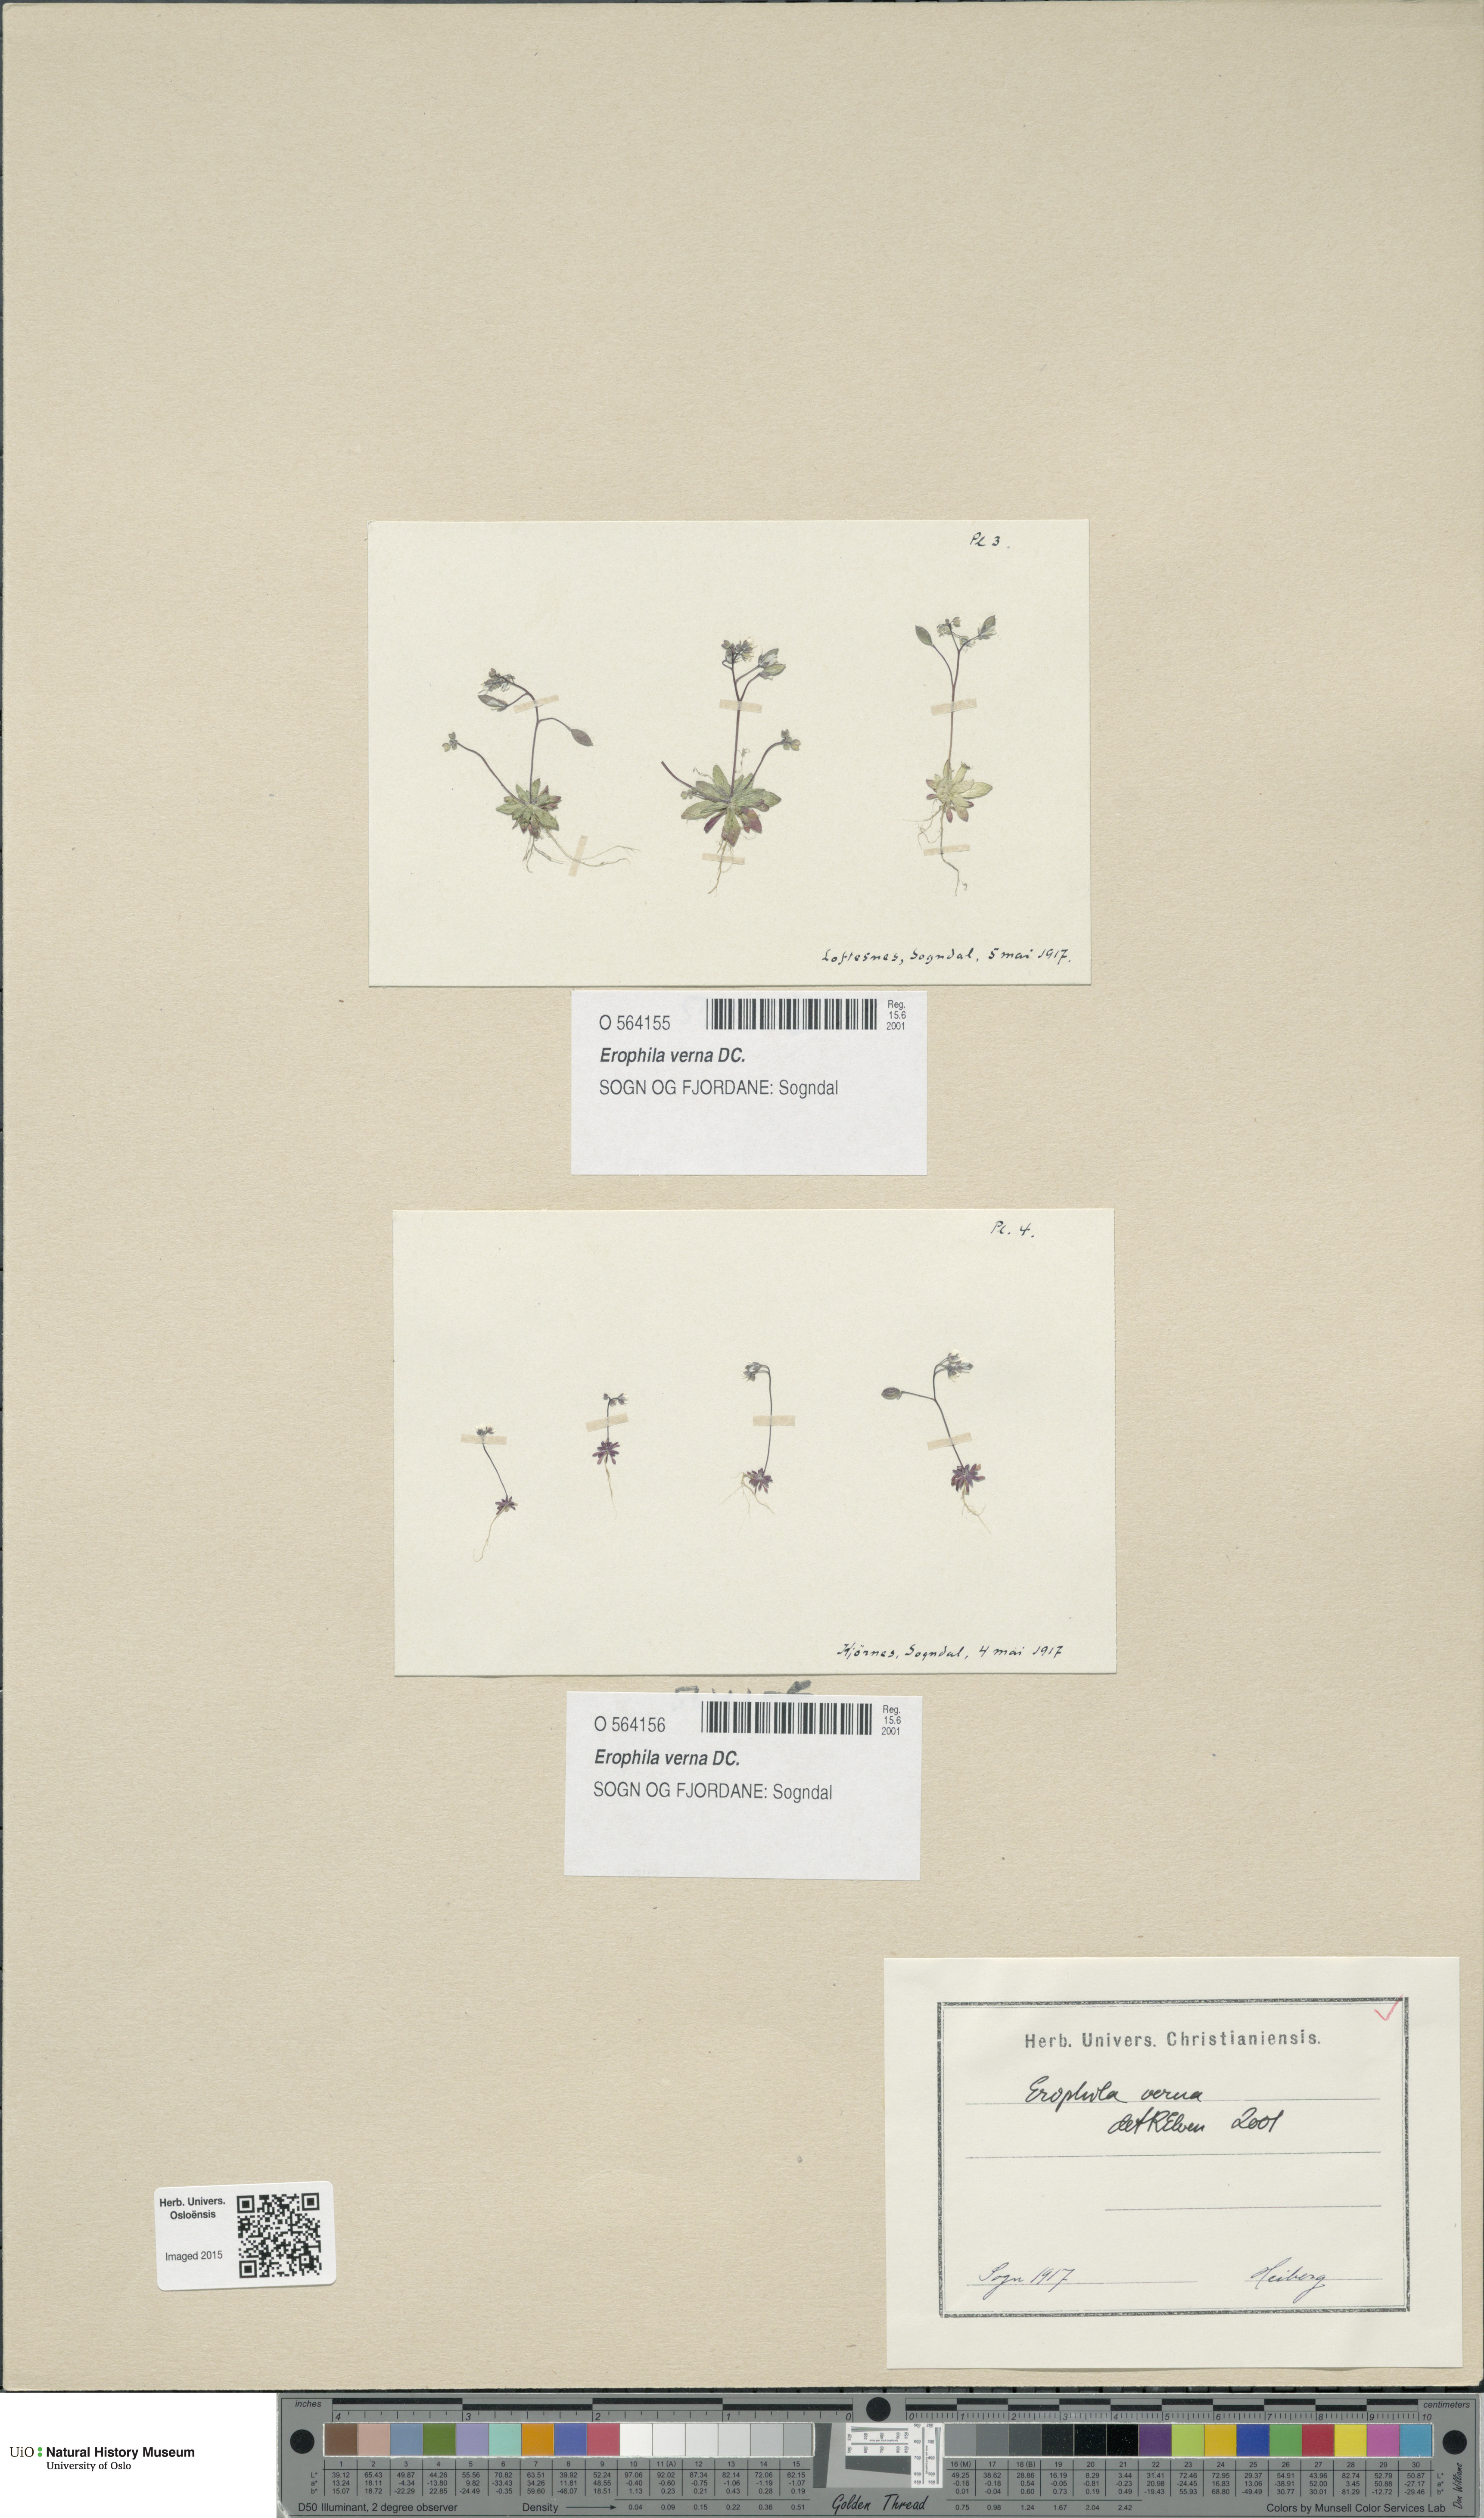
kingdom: Plantae
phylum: Tracheophyta
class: Magnoliopsida
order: Brassicales
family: Brassicaceae
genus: Draba
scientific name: Draba verna
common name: Spring draba
